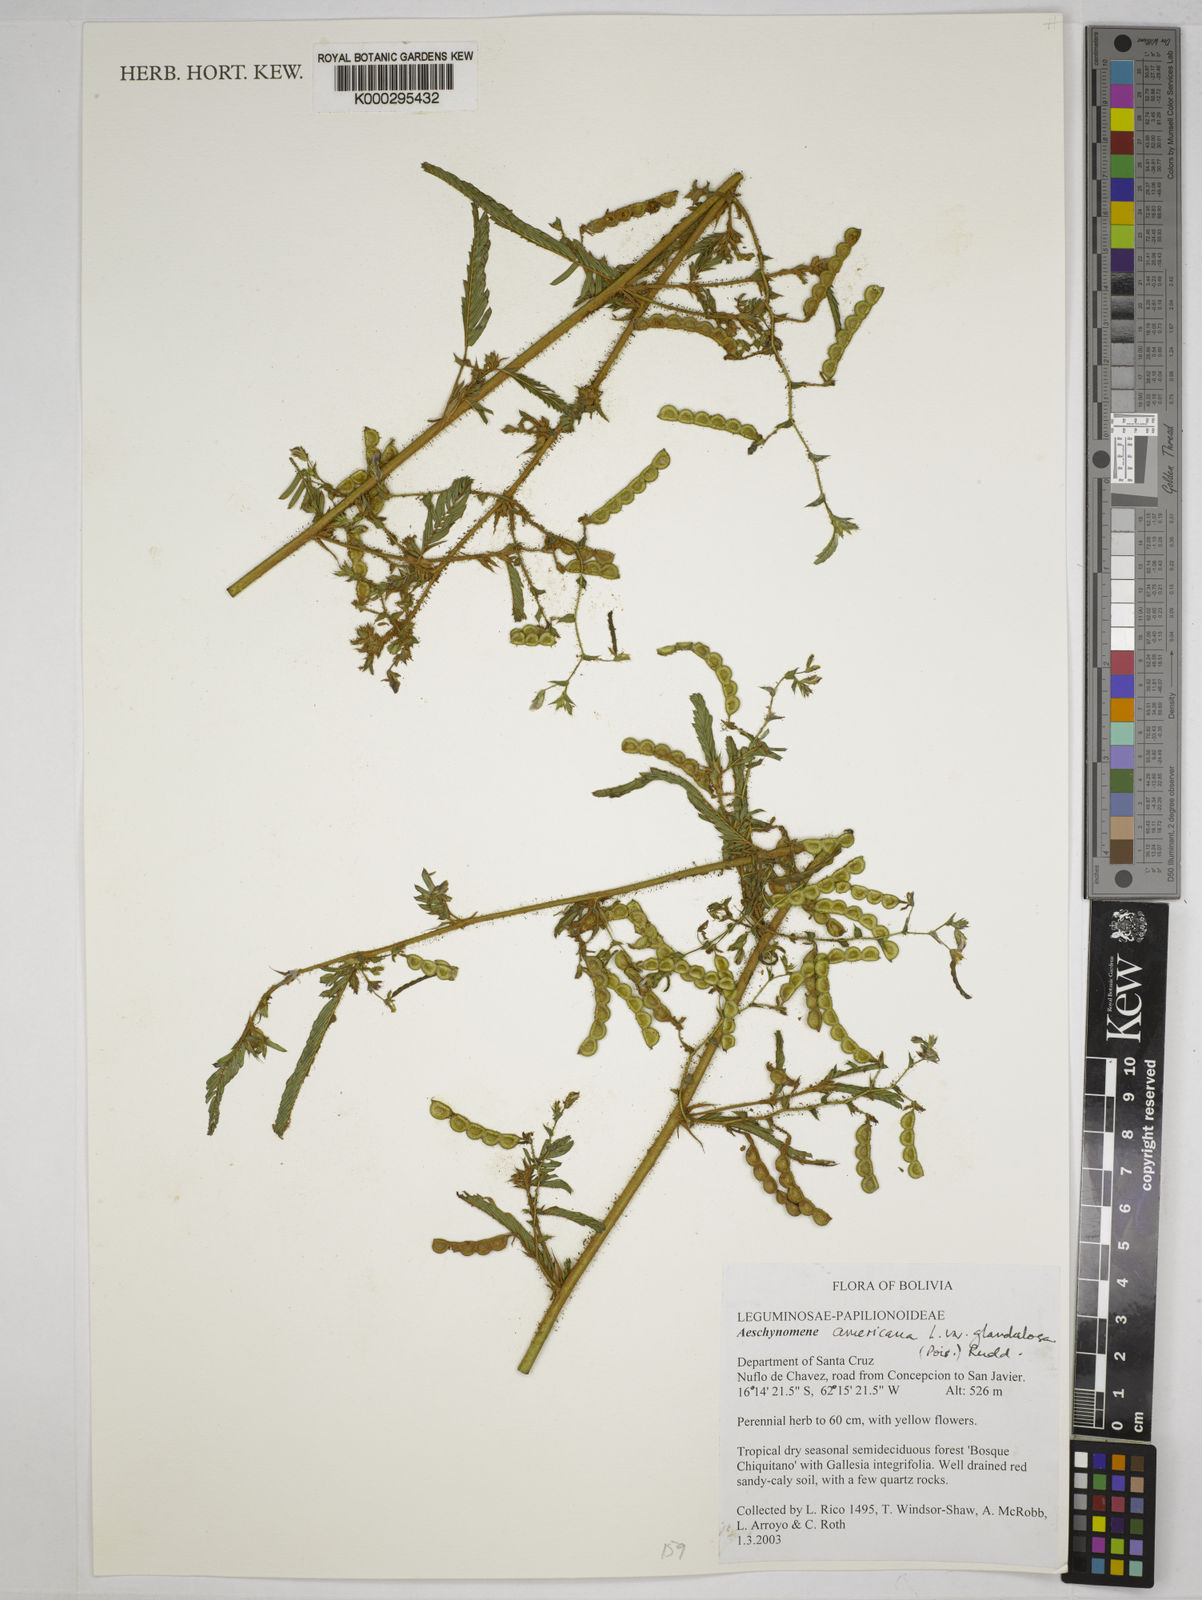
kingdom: Plantae
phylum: Tracheophyta
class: Magnoliopsida
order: Fabales
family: Fabaceae
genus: Aeschynomene
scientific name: Aeschynomene americana
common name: Joint-vetch
